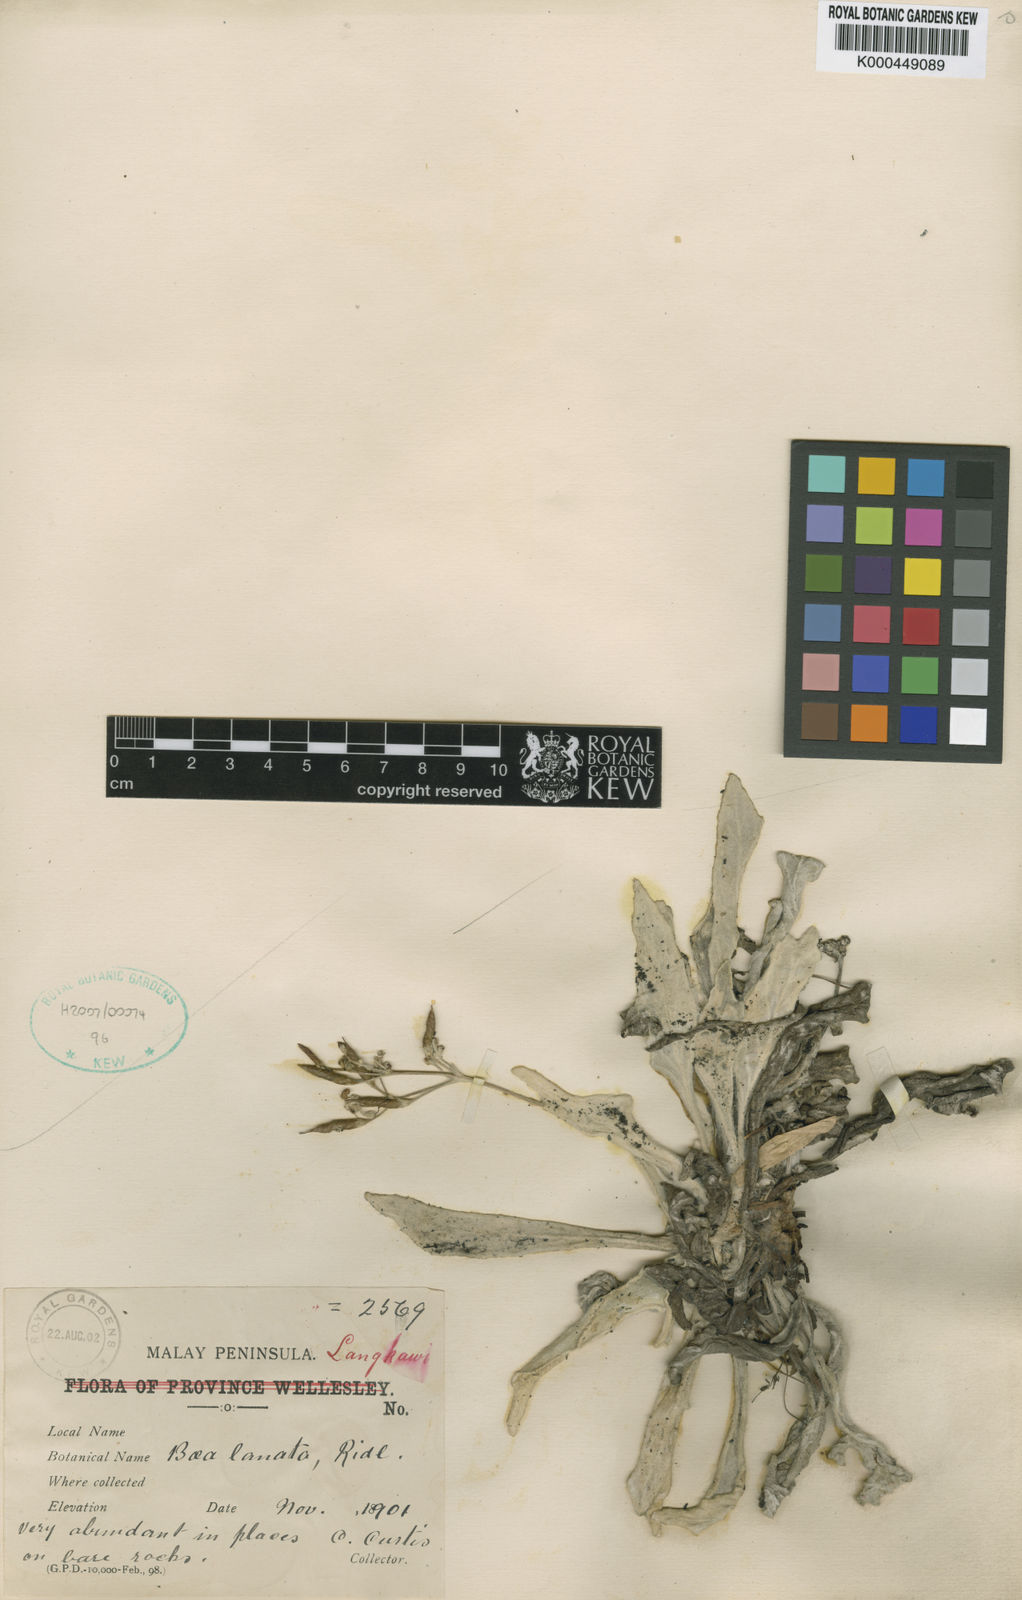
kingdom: Plantae
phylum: Tracheophyta
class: Magnoliopsida
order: Lamiales
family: Gesneriaceae
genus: Paraboea
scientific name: Paraboea lanata
